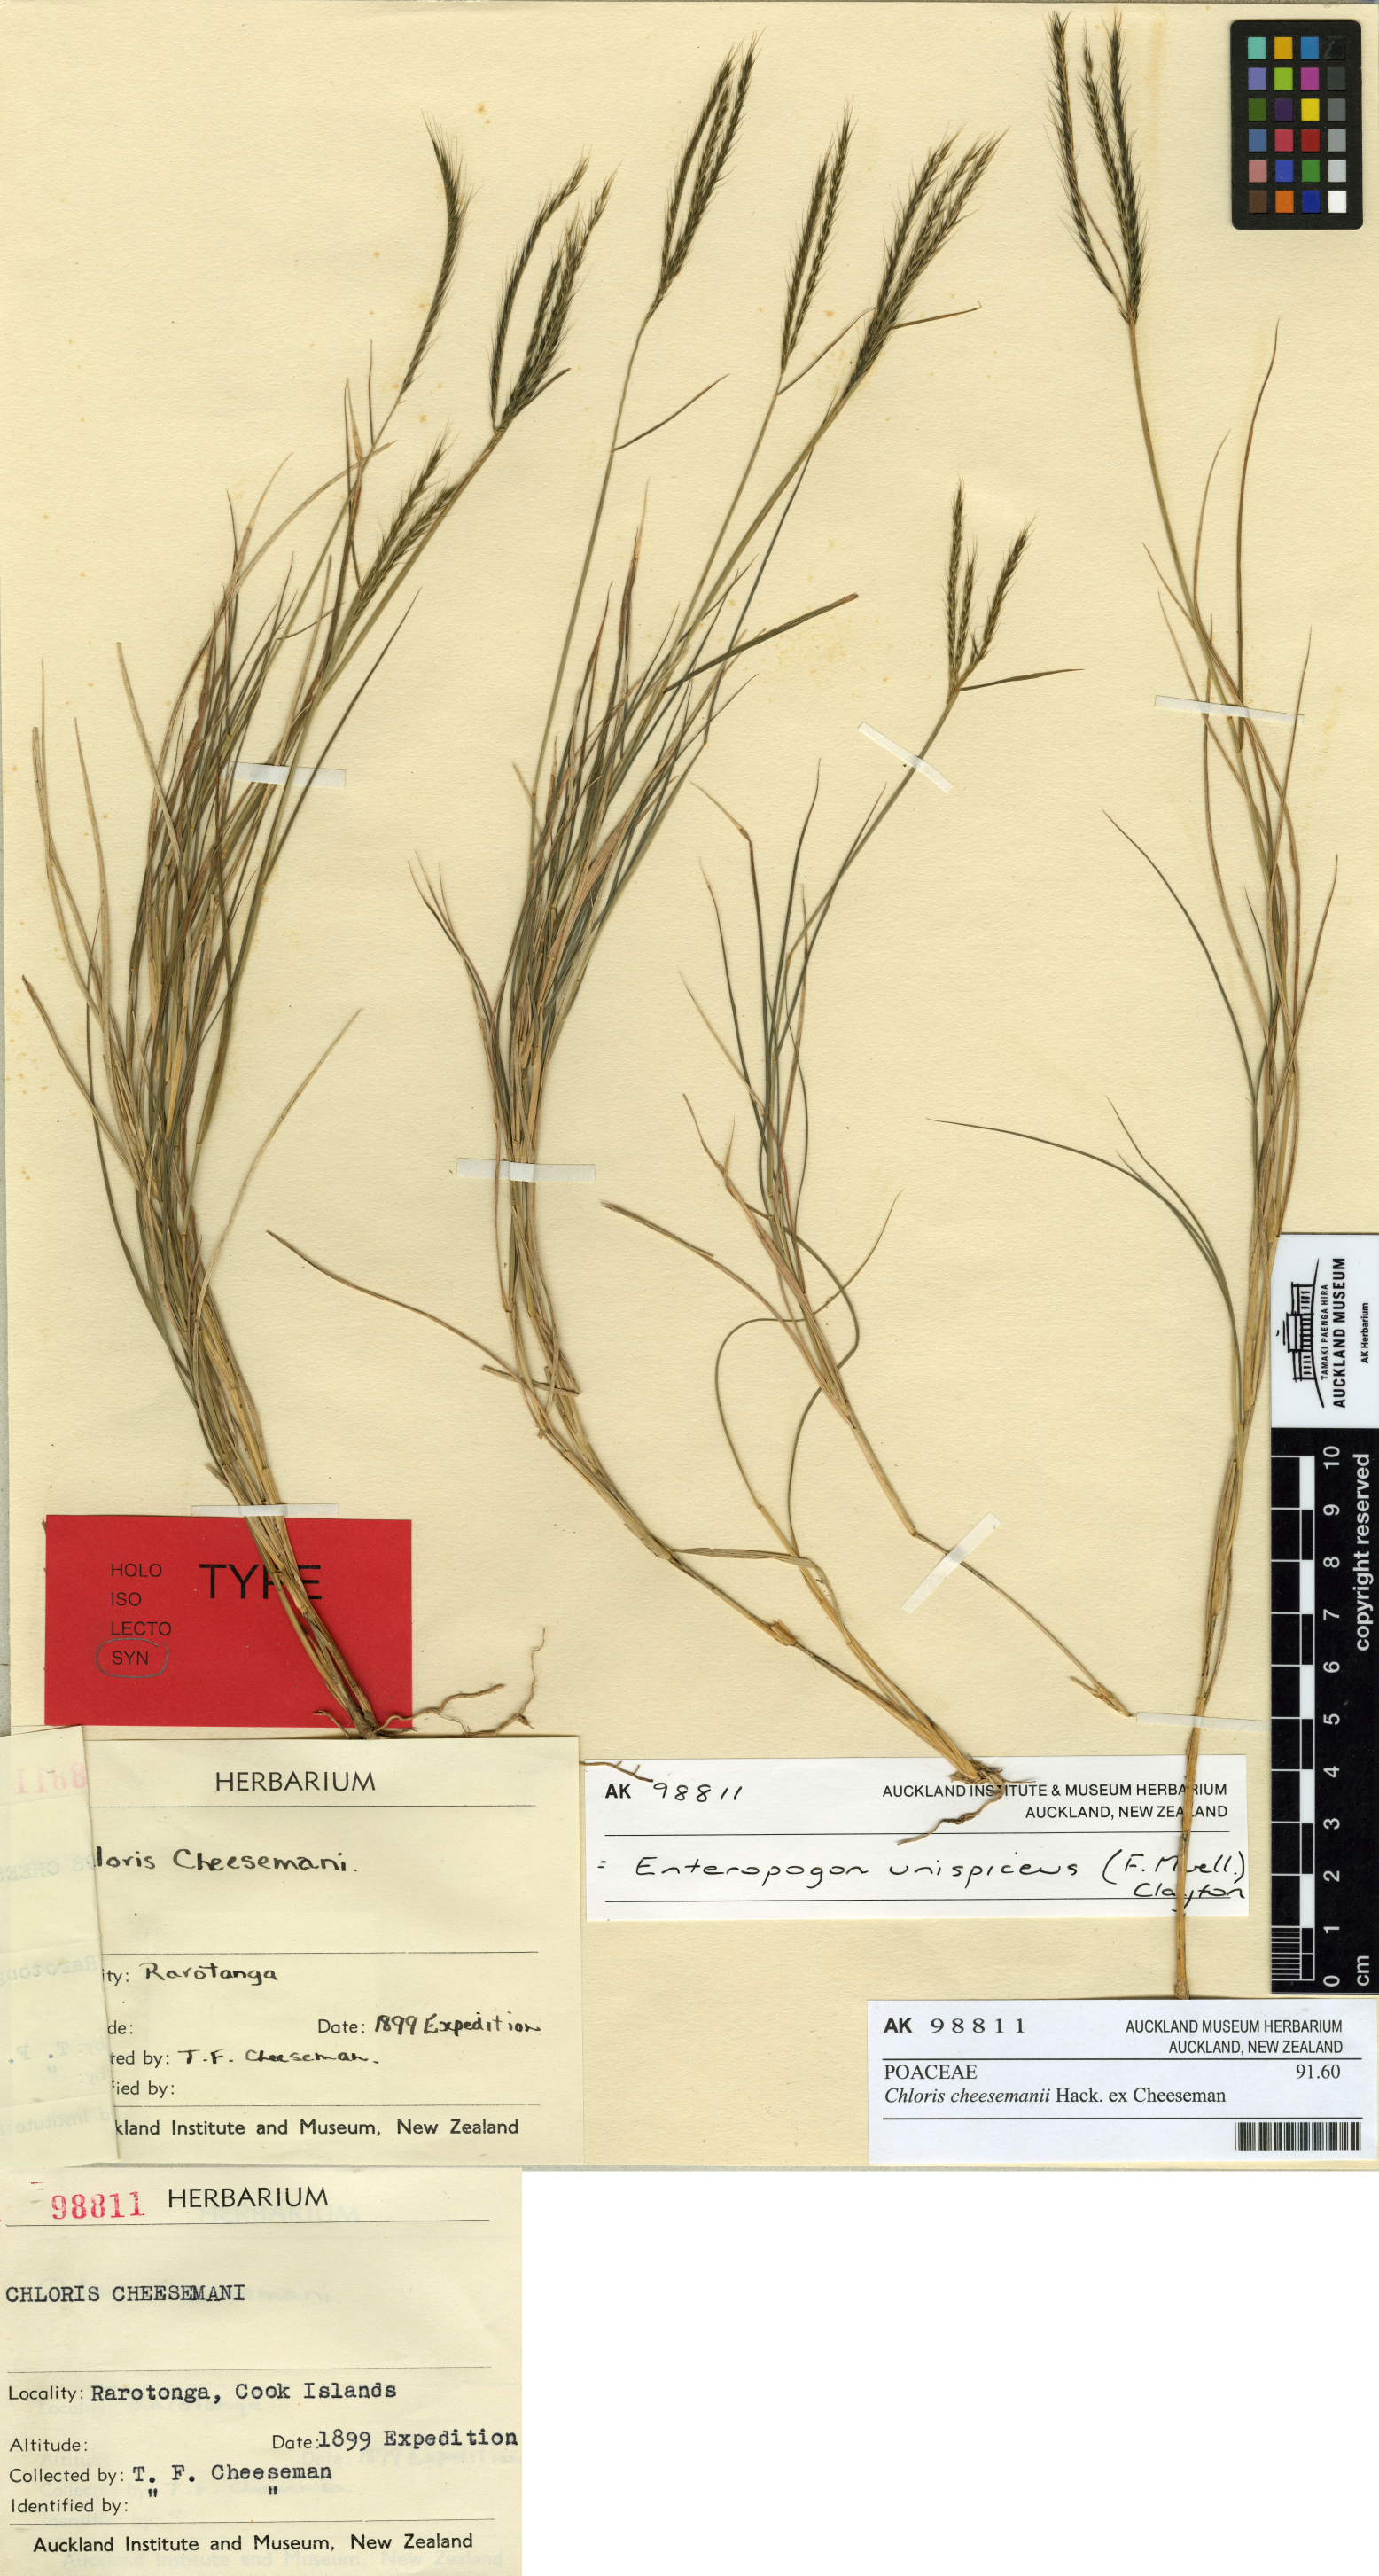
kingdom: Plantae
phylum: Tracheophyta
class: Liliopsida
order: Poales
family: Poaceae
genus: Enteropogon
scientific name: Enteropogon unispiceus
